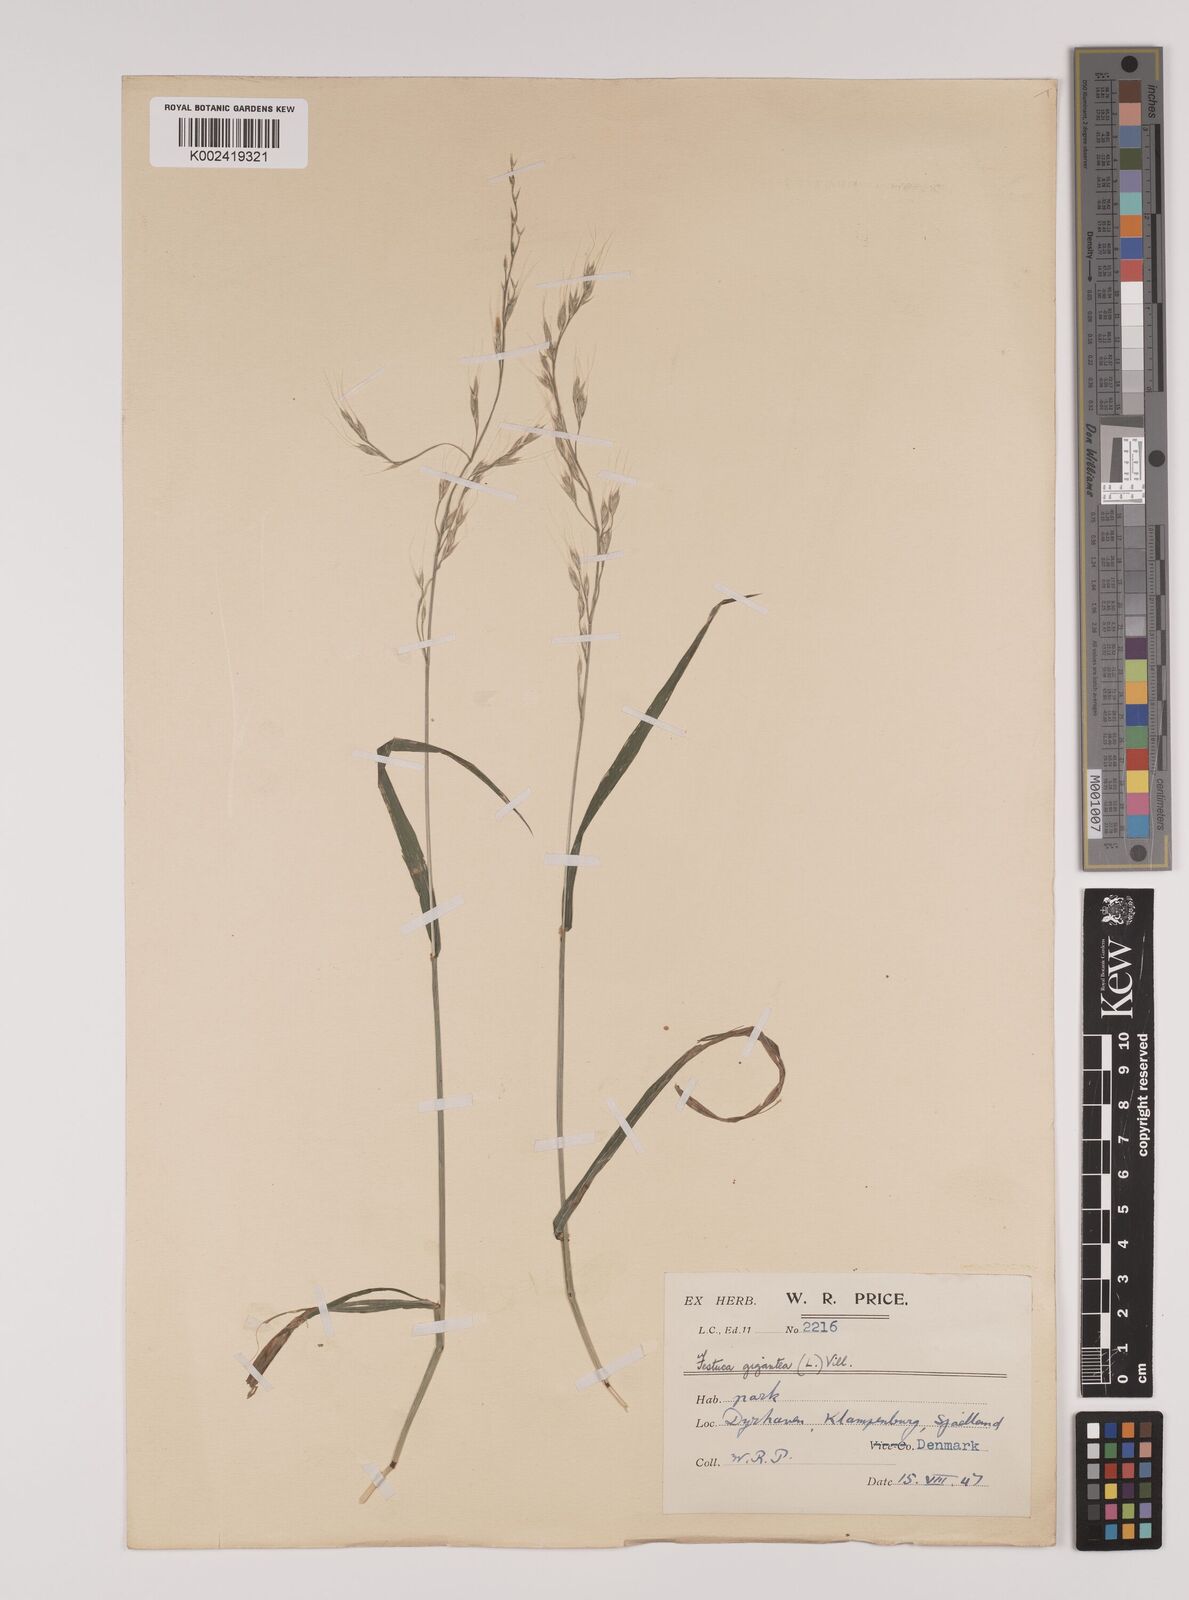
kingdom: Plantae
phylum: Tracheophyta
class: Liliopsida
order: Poales
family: Poaceae
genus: Lolium
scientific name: Lolium giganteum
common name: Giant fescue
